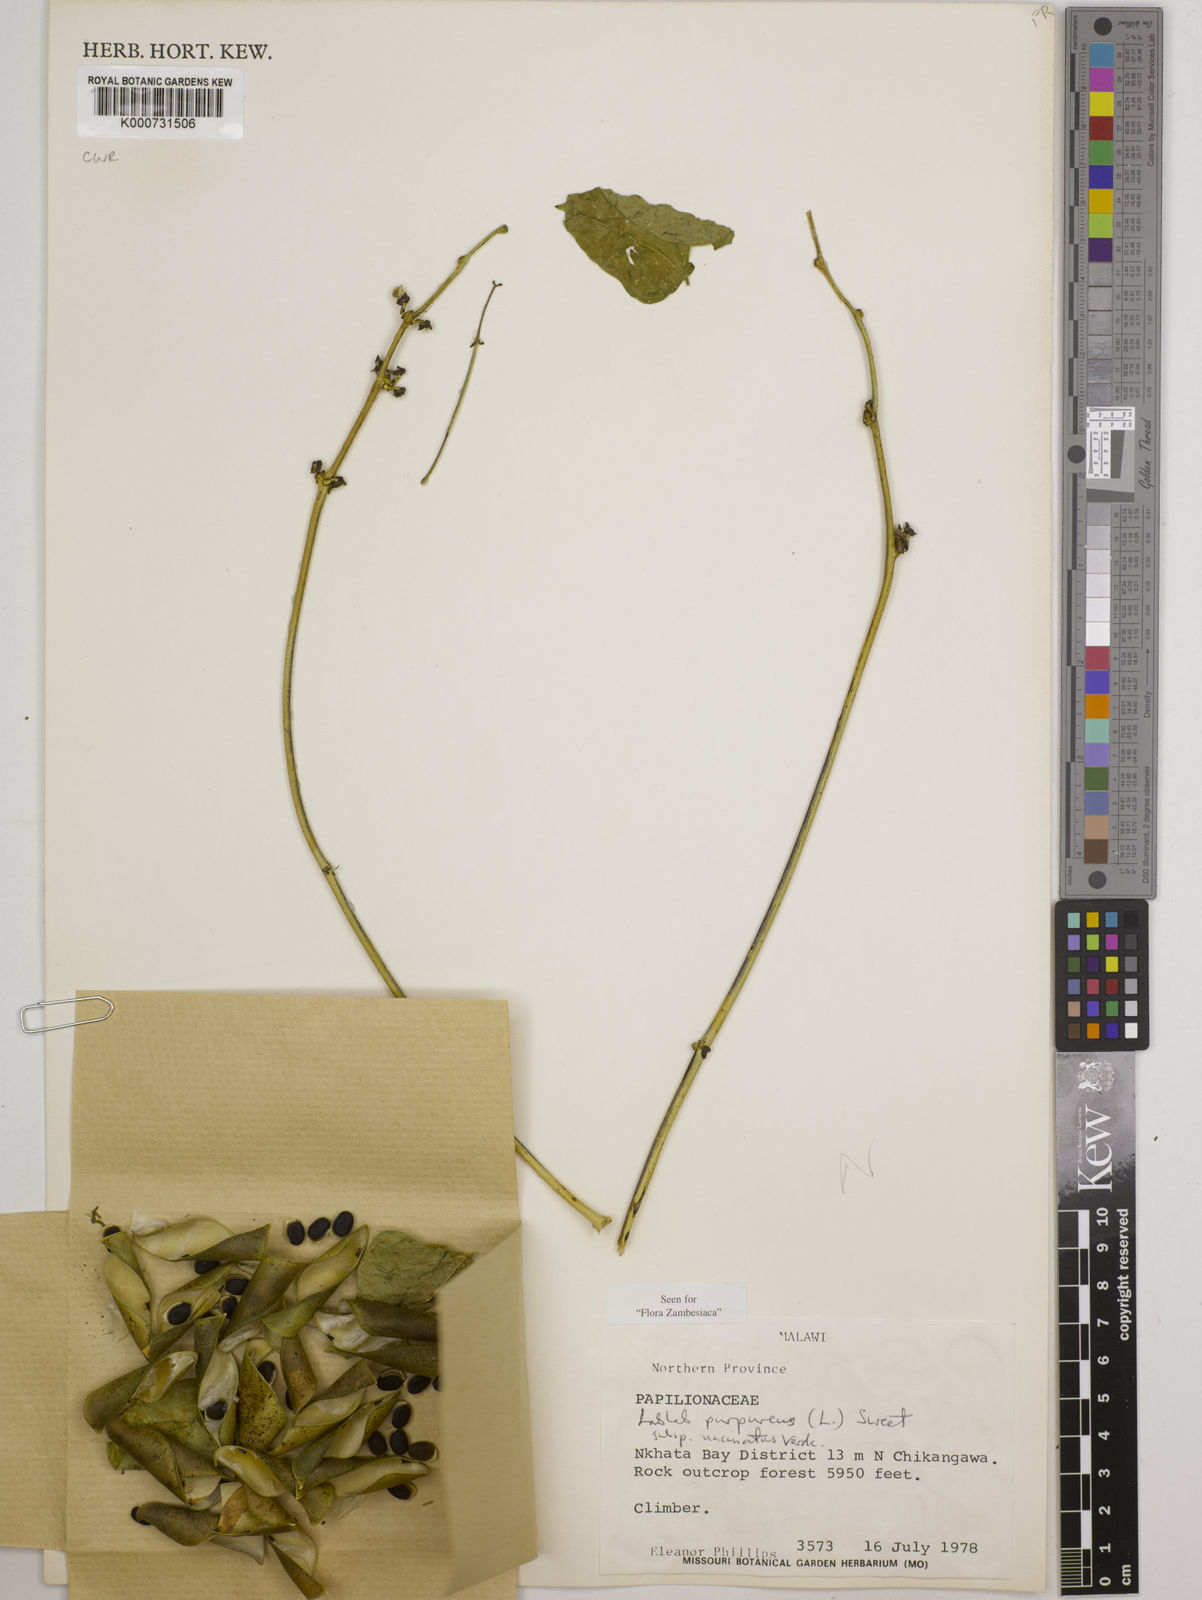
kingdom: Plantae
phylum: Tracheophyta
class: Magnoliopsida
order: Fabales
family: Fabaceae
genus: Lablab
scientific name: Lablab purpureus
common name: Lablab-bean
